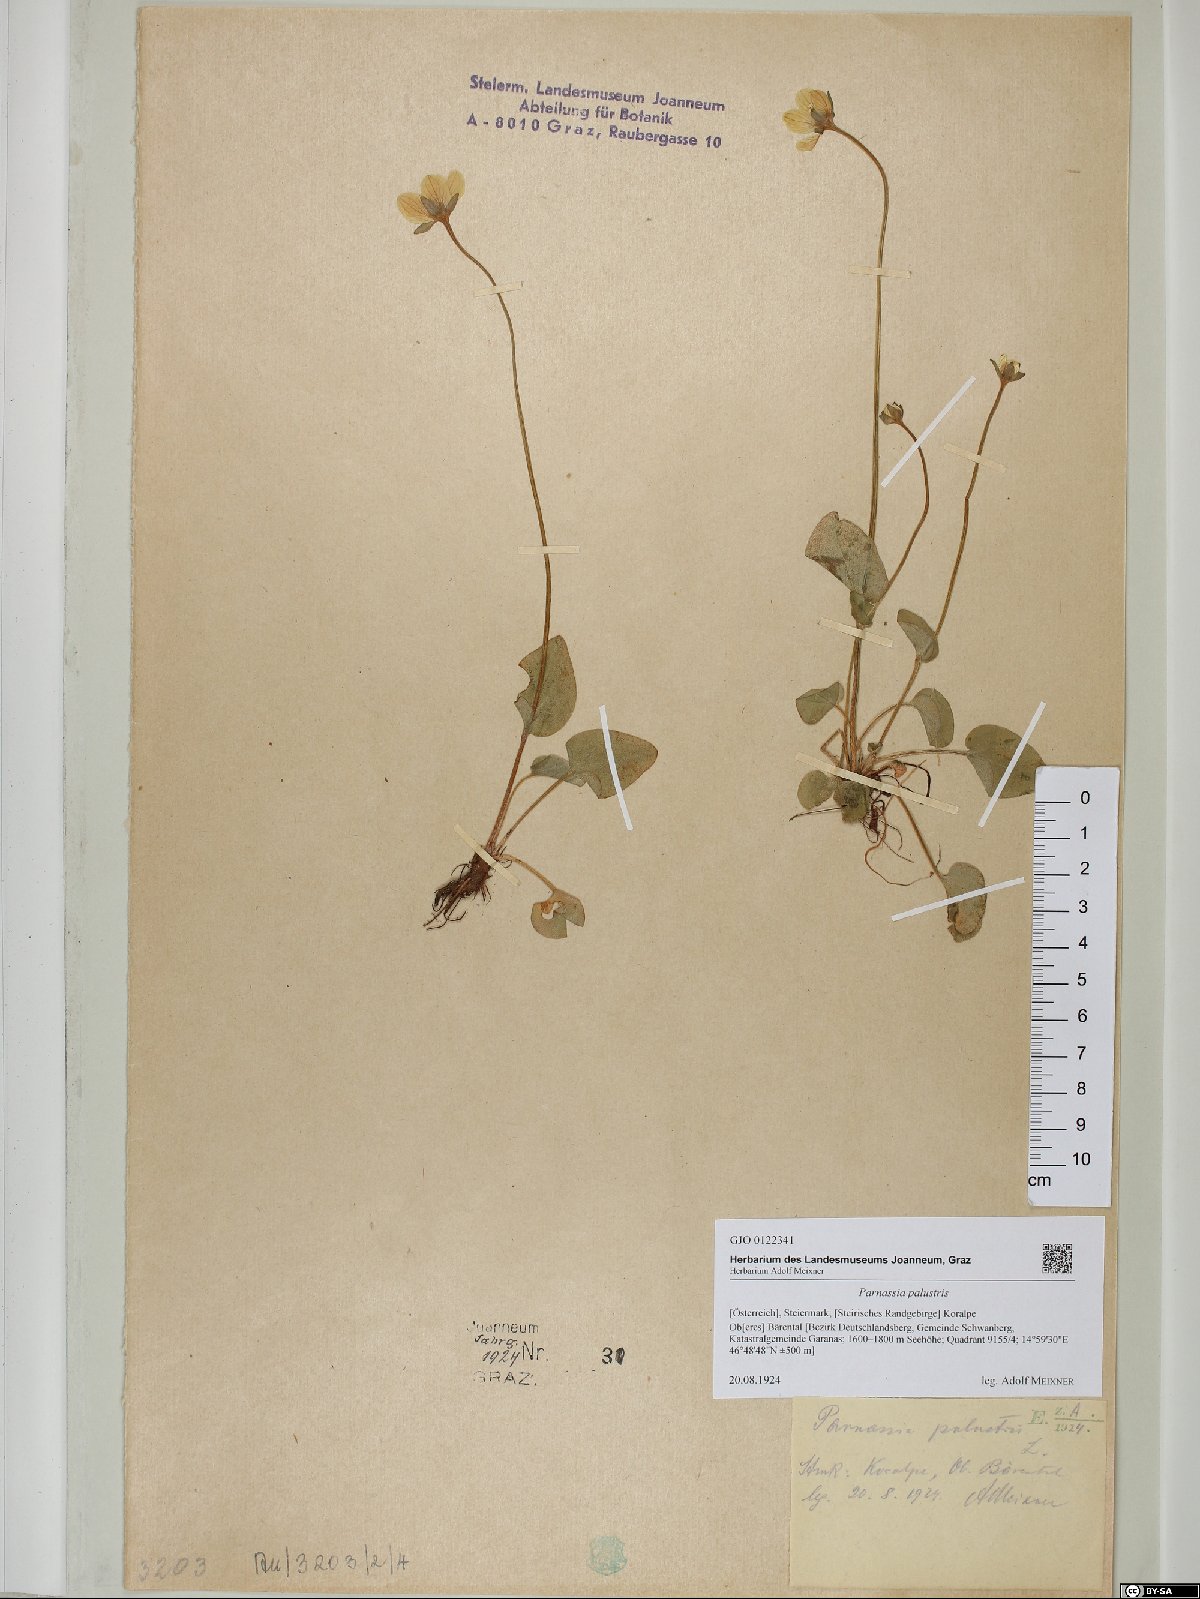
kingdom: Plantae
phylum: Tracheophyta
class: Magnoliopsida
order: Celastrales
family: Parnassiaceae
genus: Parnassia
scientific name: Parnassia palustris
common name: Grass-of-parnassus
